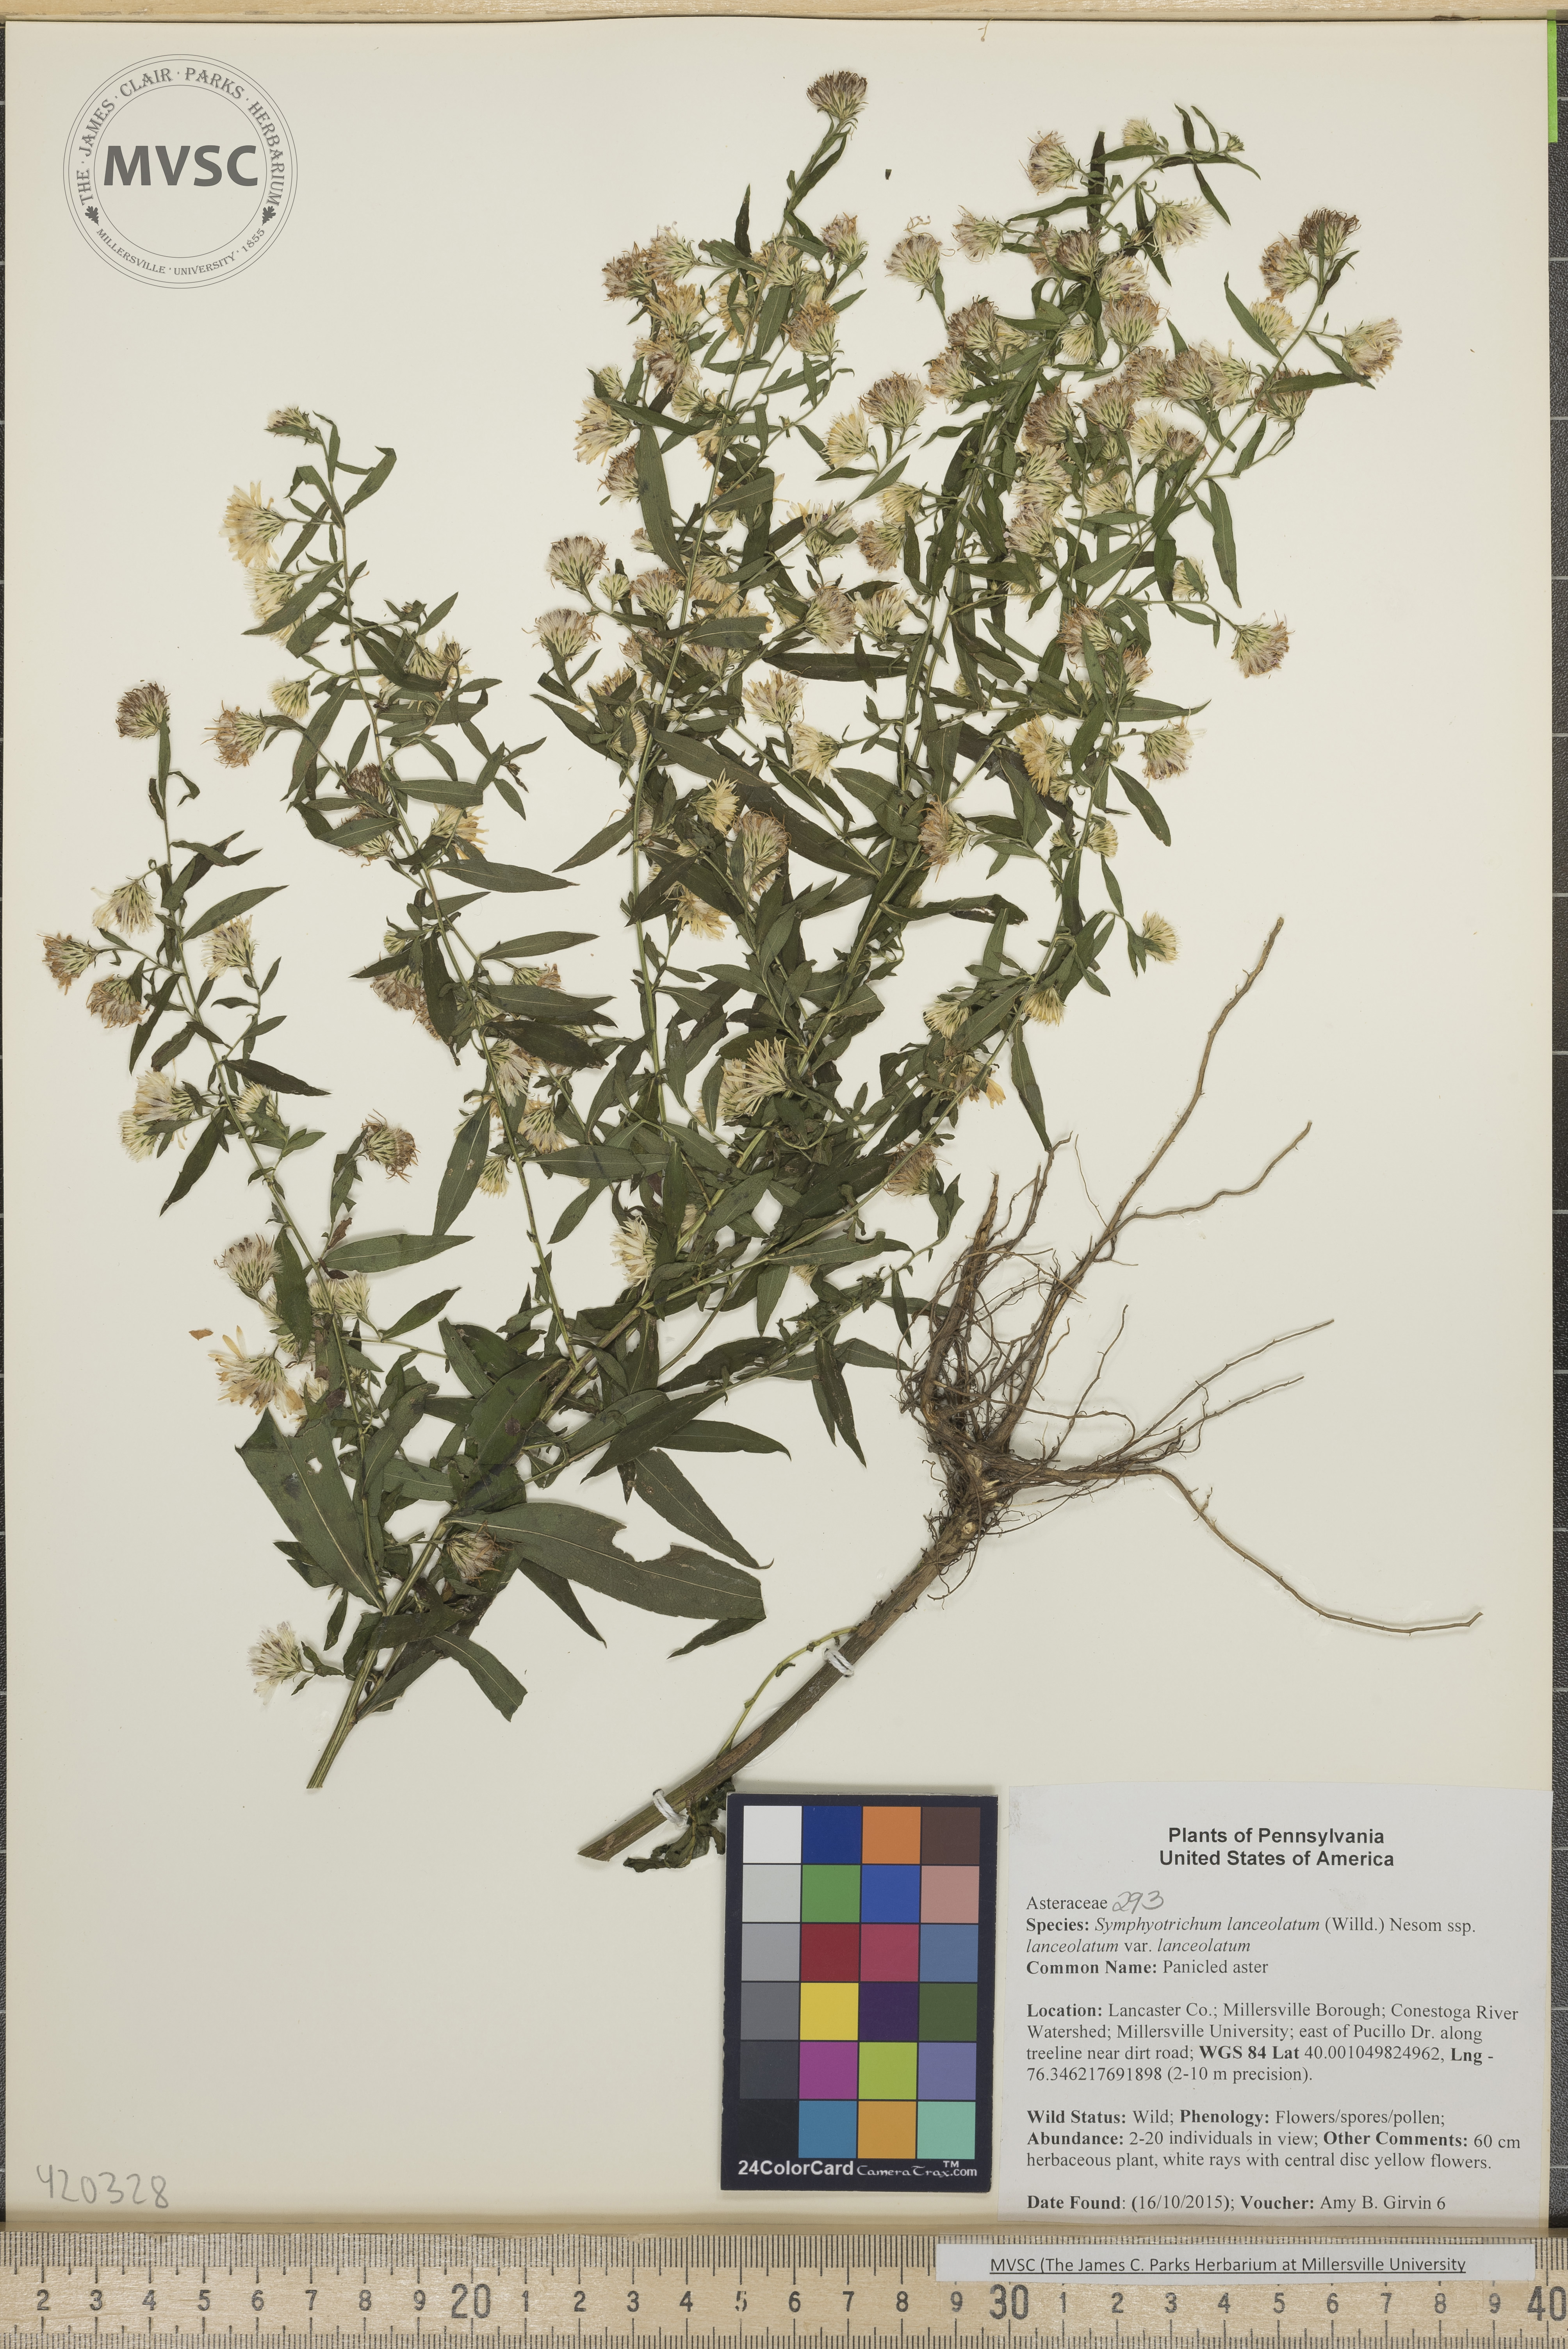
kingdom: Plantae
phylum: Tracheophyta
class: Magnoliopsida
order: Asterales
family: Asteraceae
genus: Symphyotrichum
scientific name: Symphyotrichum lanceolatum
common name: Panicled aster
